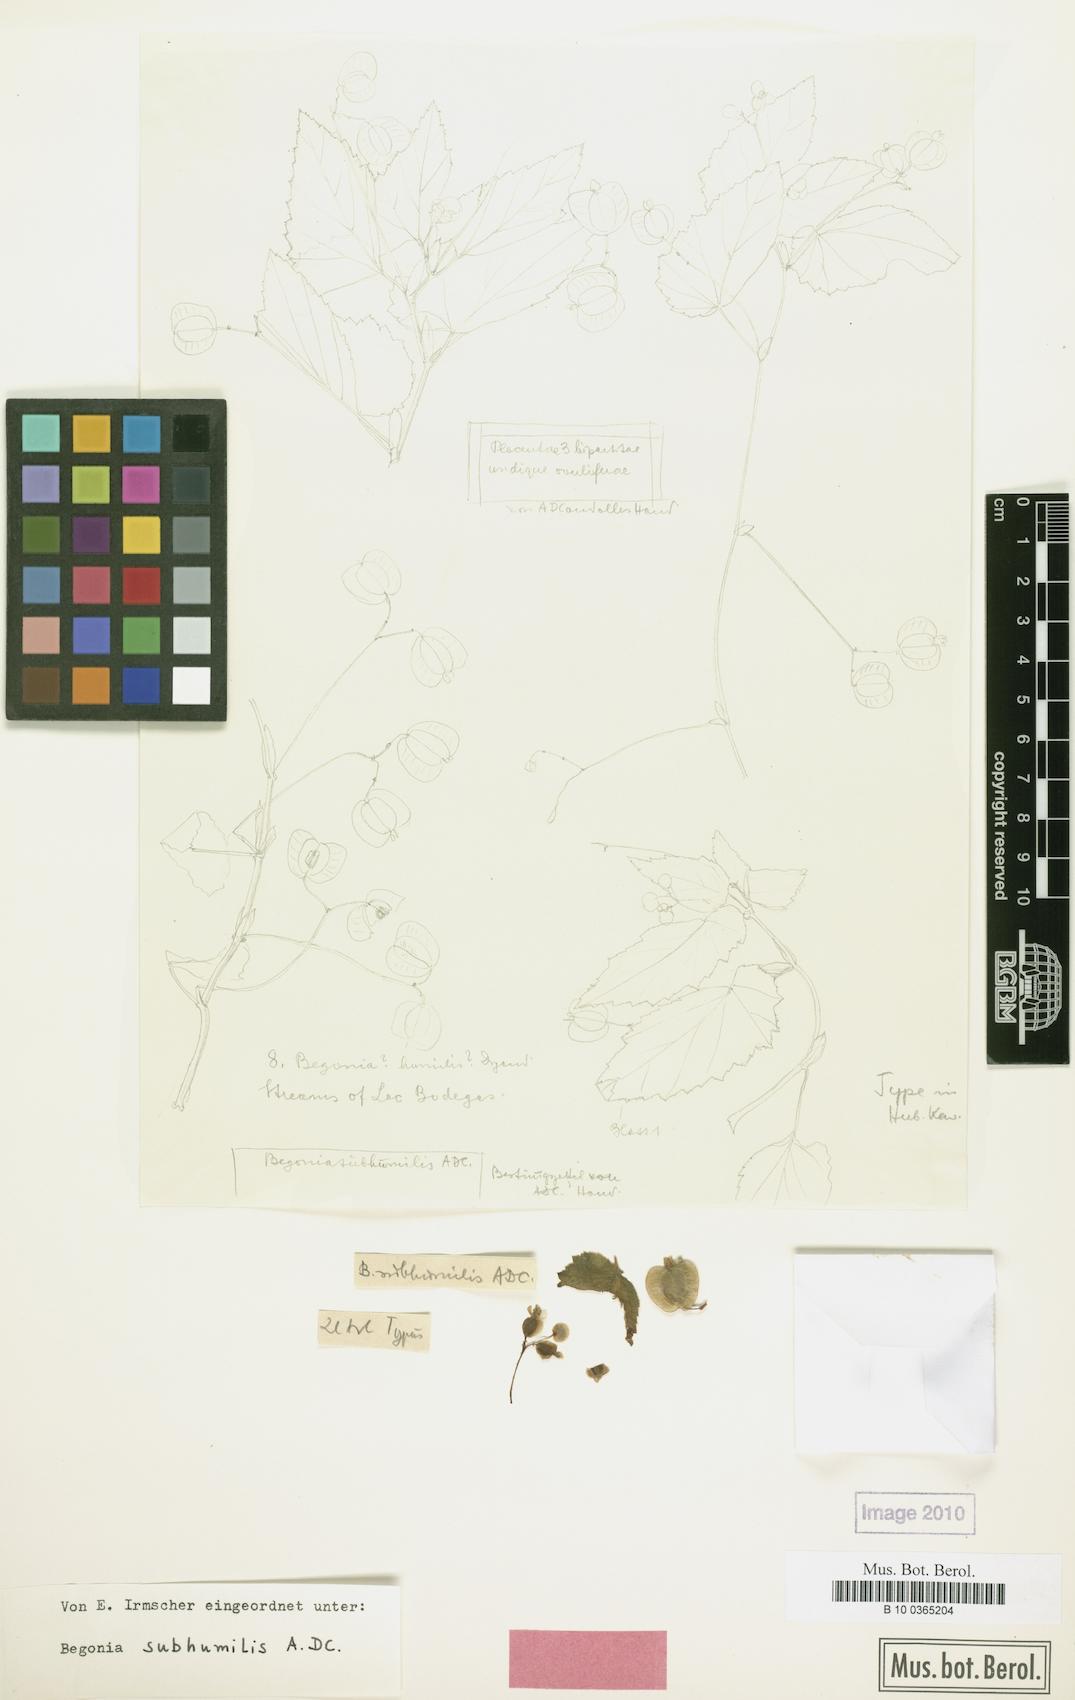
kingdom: Plantae
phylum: Tracheophyta
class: Magnoliopsida
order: Cucurbitales
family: Begoniaceae
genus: Begonia
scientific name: Begonia humilis
